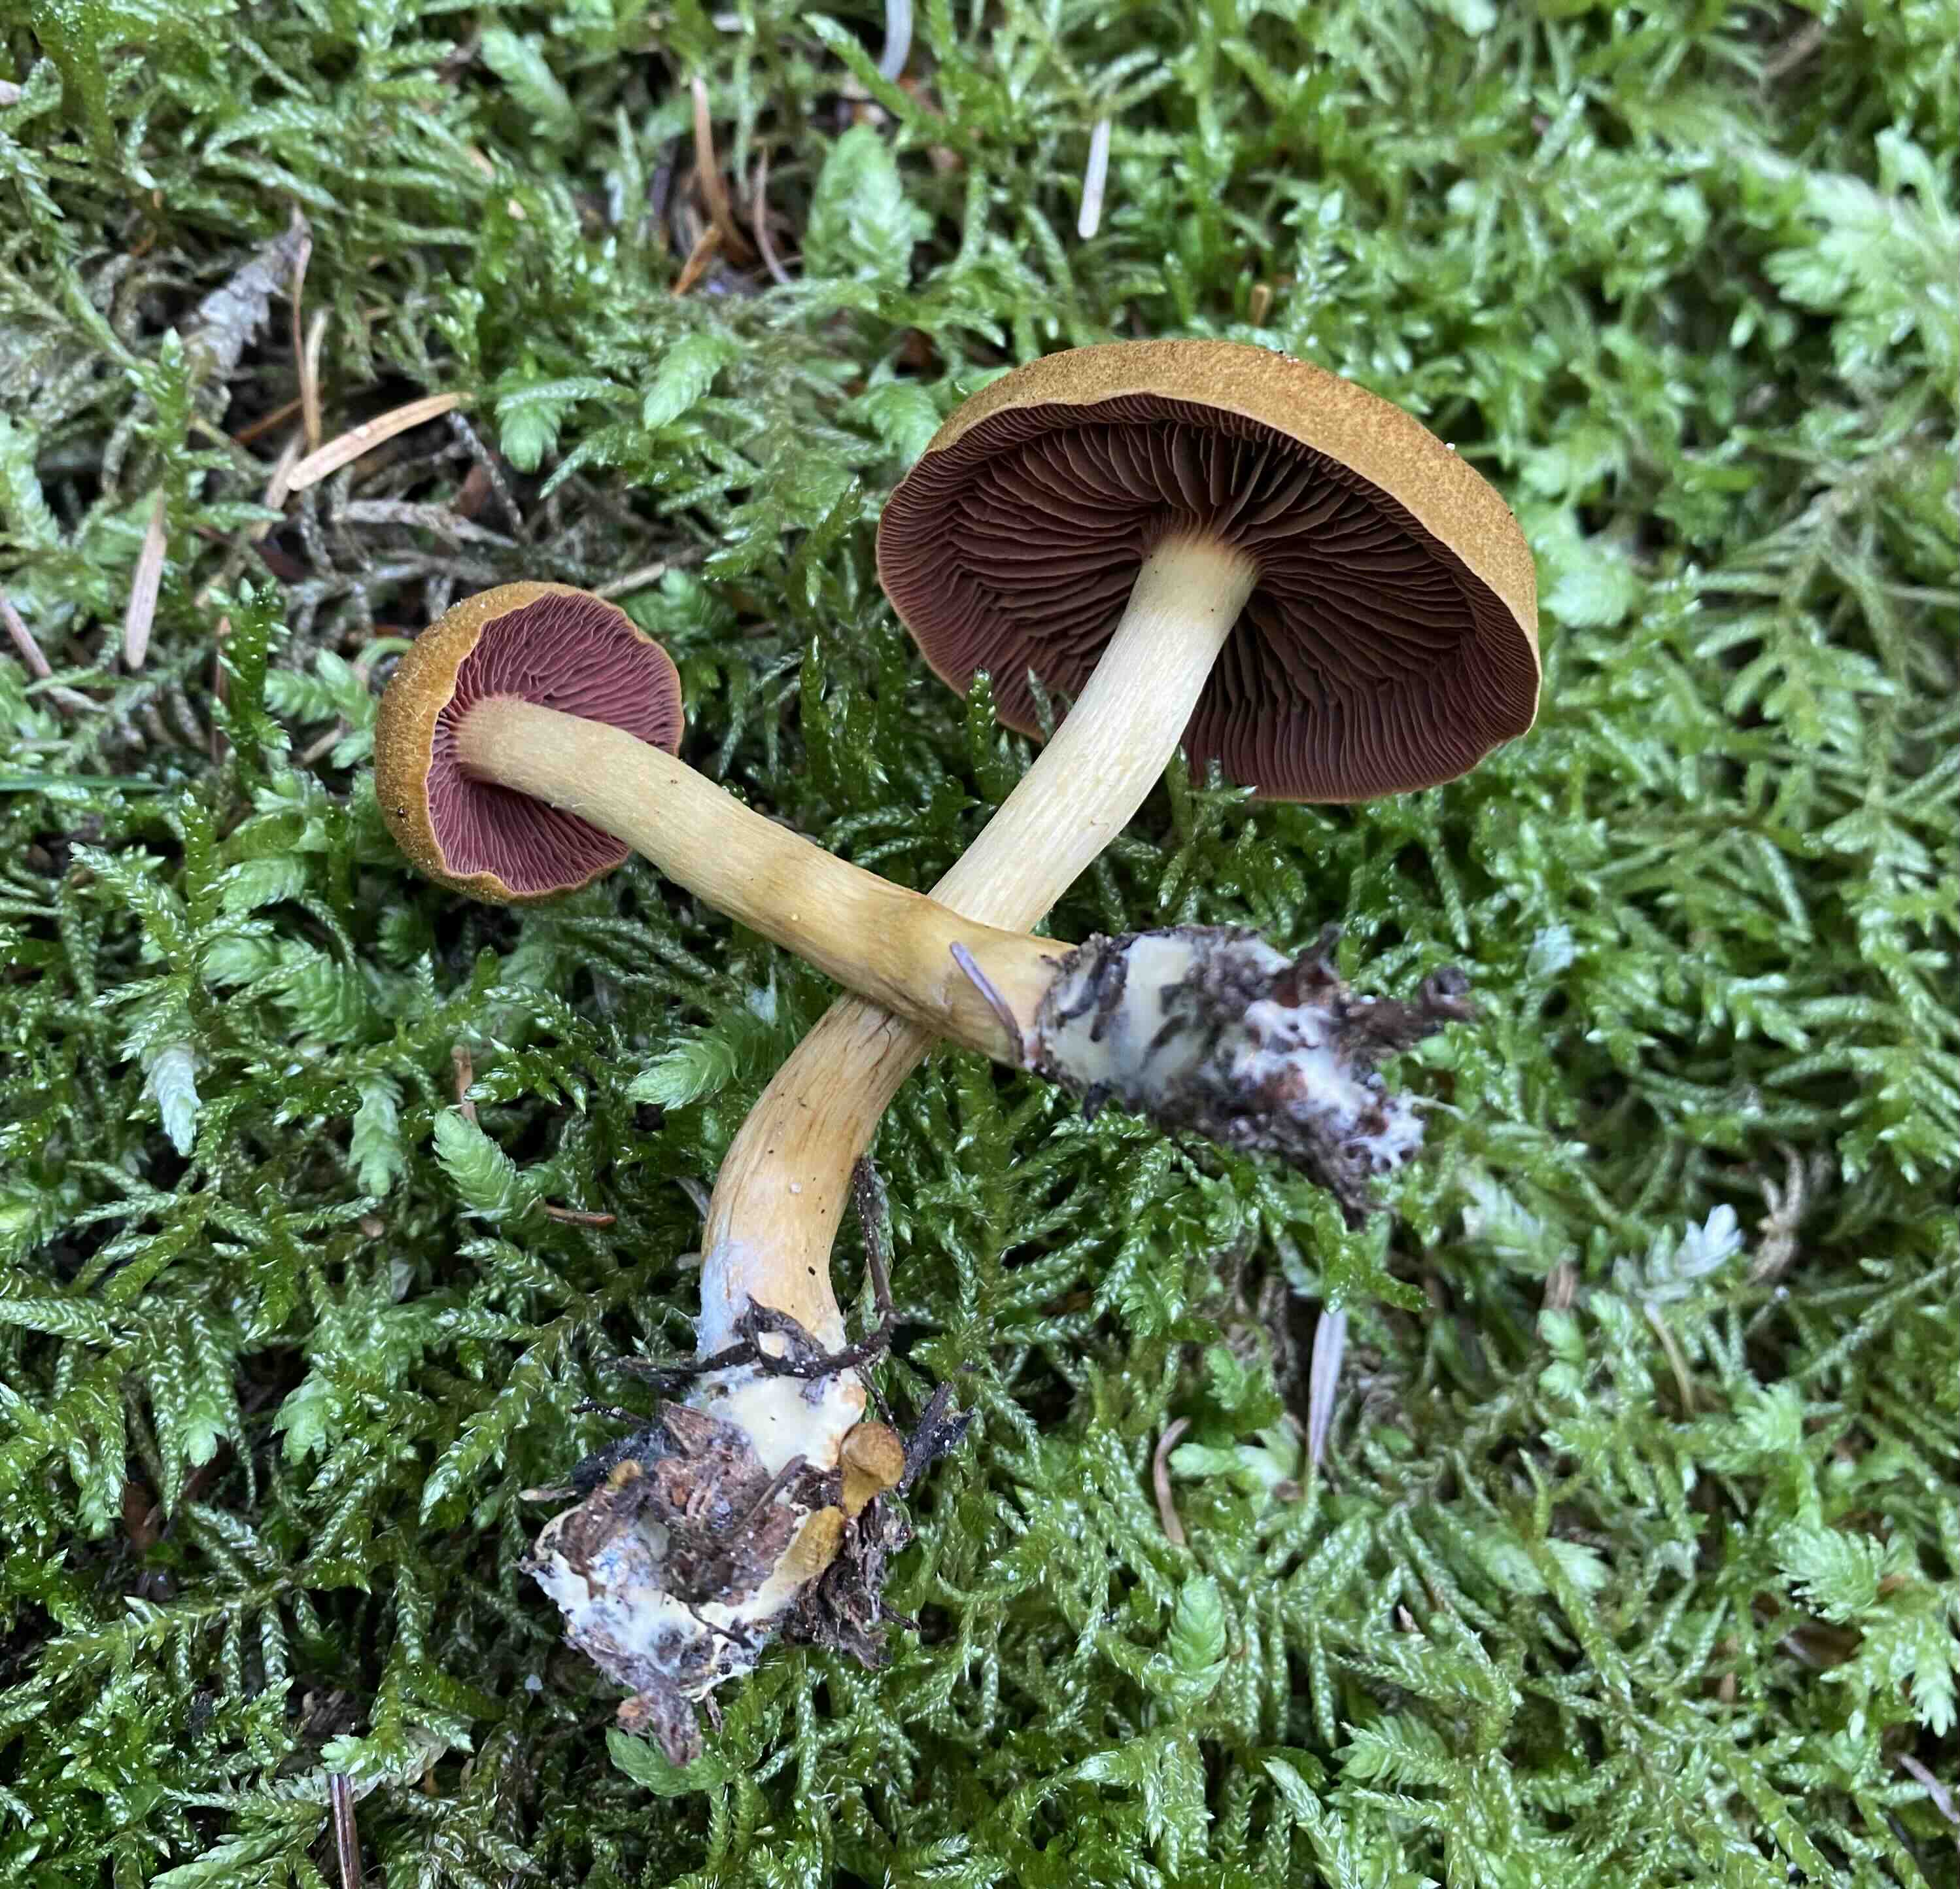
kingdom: Fungi
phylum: Basidiomycota
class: Agaricomycetes
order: Agaricales
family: Cortinariaceae
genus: Cortinarius
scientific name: Cortinarius
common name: cinnoberbladet slørhat
